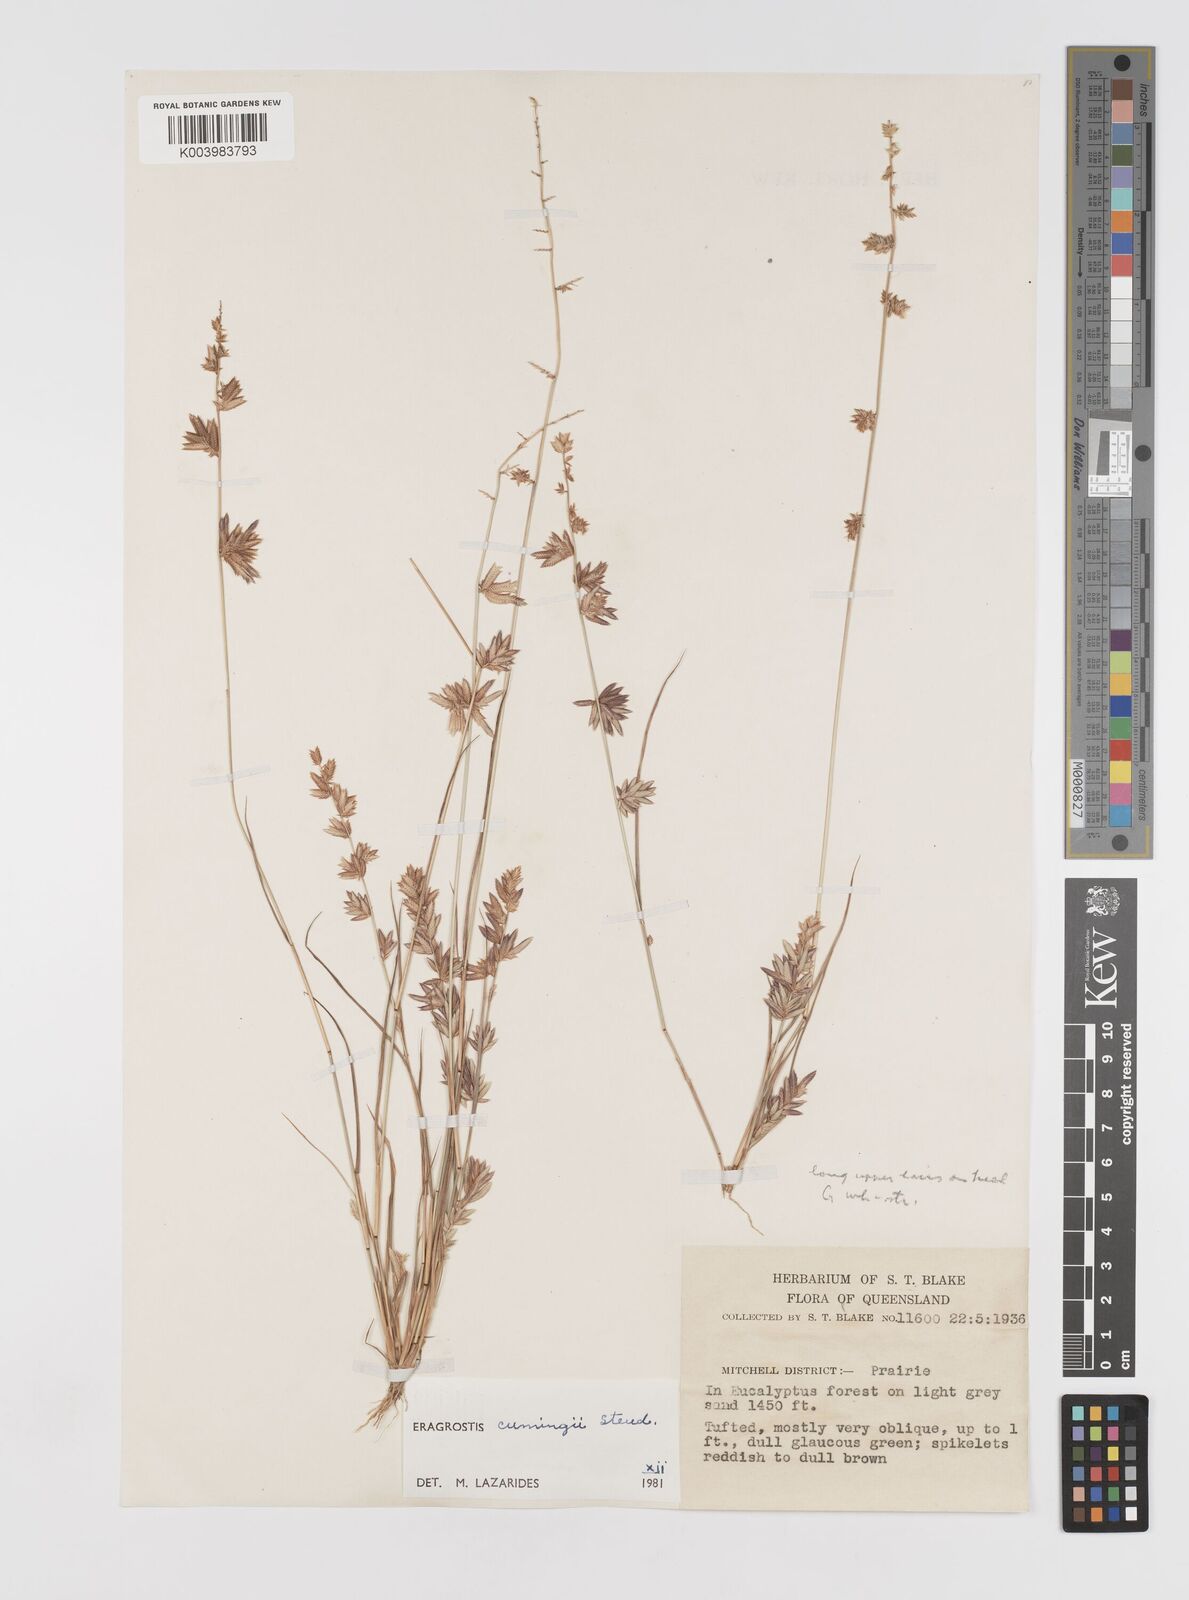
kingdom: Plantae
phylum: Tracheophyta
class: Liliopsida
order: Poales
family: Poaceae
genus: Eragrostis
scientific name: Eragrostis cumingii
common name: Cuming's lovegrass
